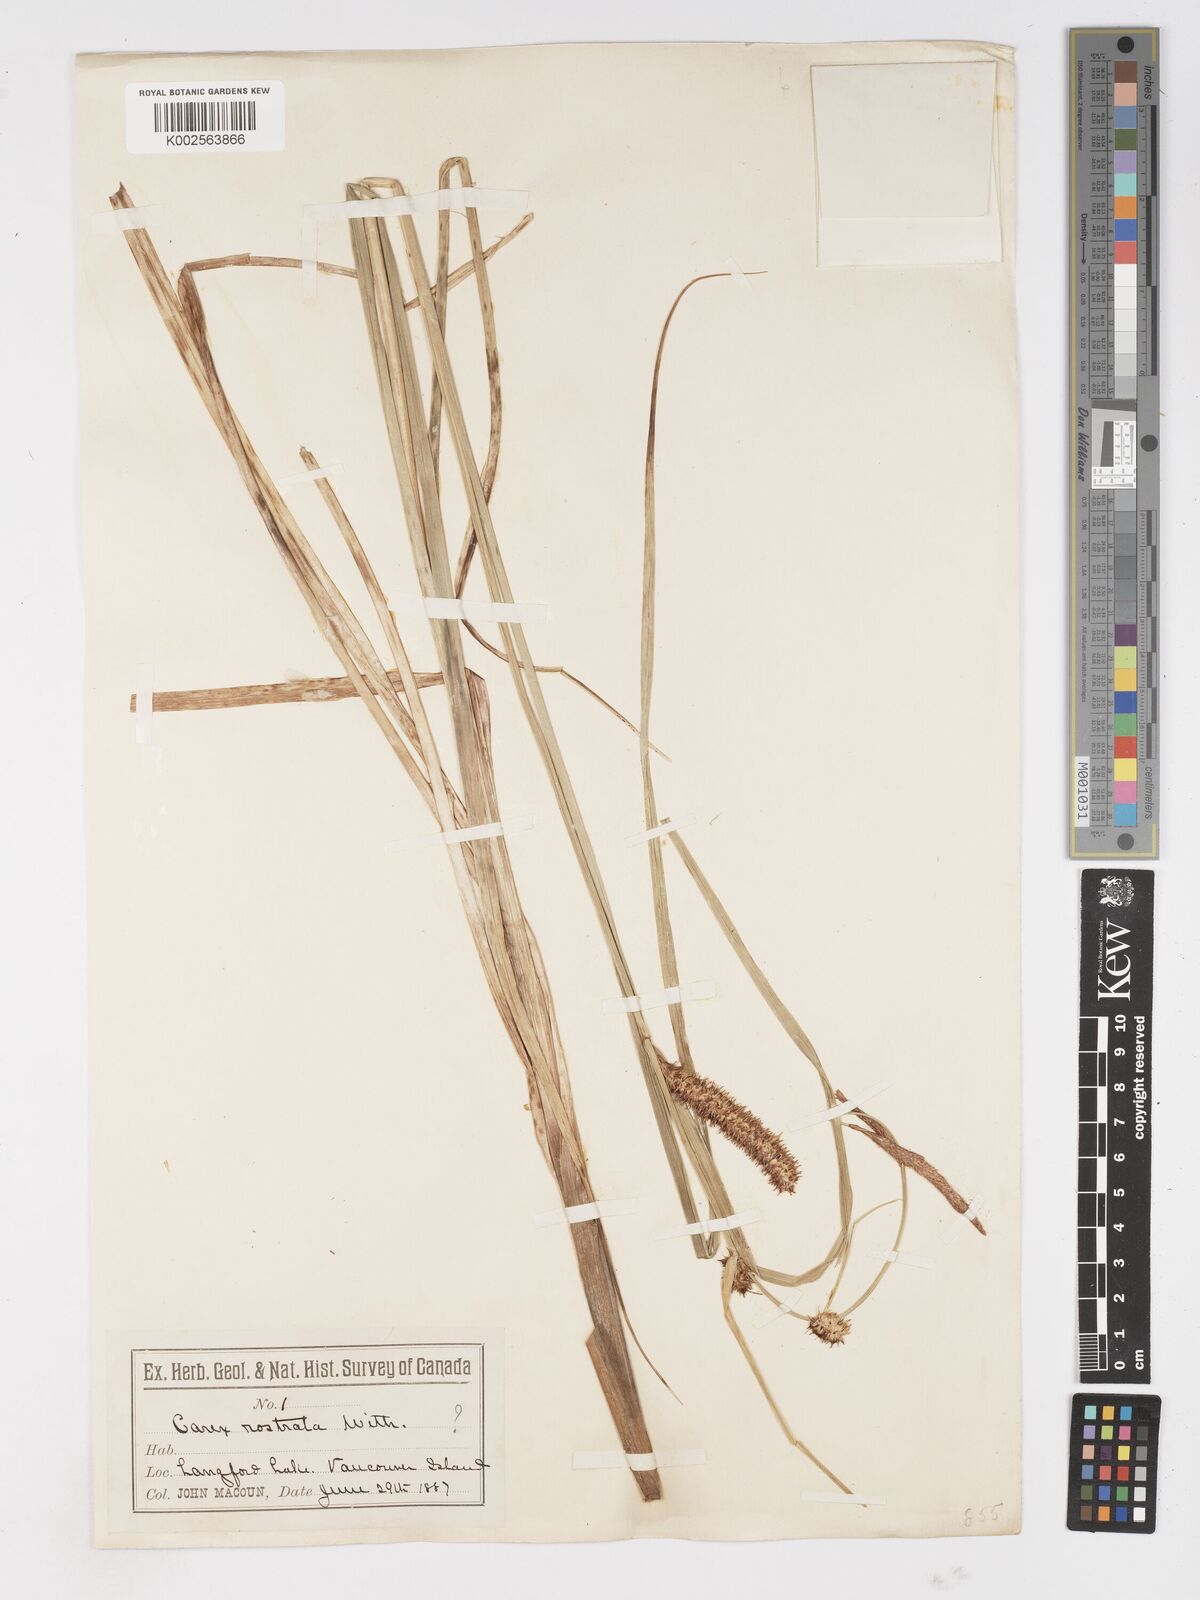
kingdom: Plantae
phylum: Tracheophyta
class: Liliopsida
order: Poales
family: Cyperaceae
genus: Carex
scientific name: Carex rostrata
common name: Bottle sedge
